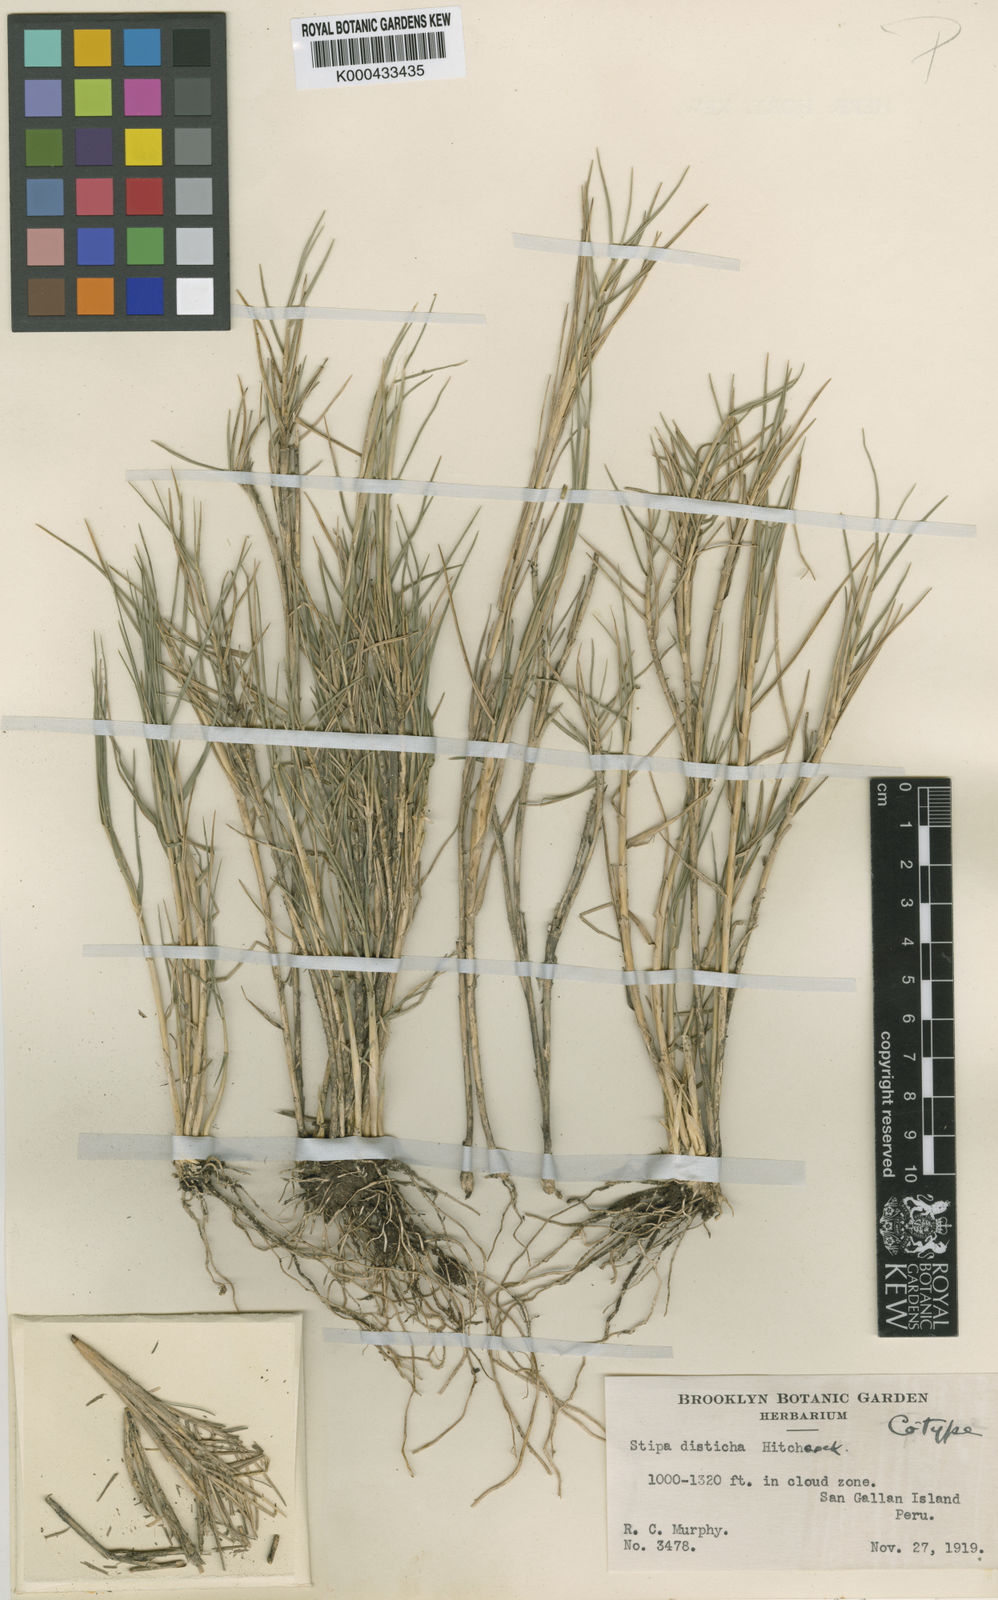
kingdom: Plantae
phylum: Tracheophyta
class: Liliopsida
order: Poales
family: Poaceae
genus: Stipa
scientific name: Stipa pachypus
